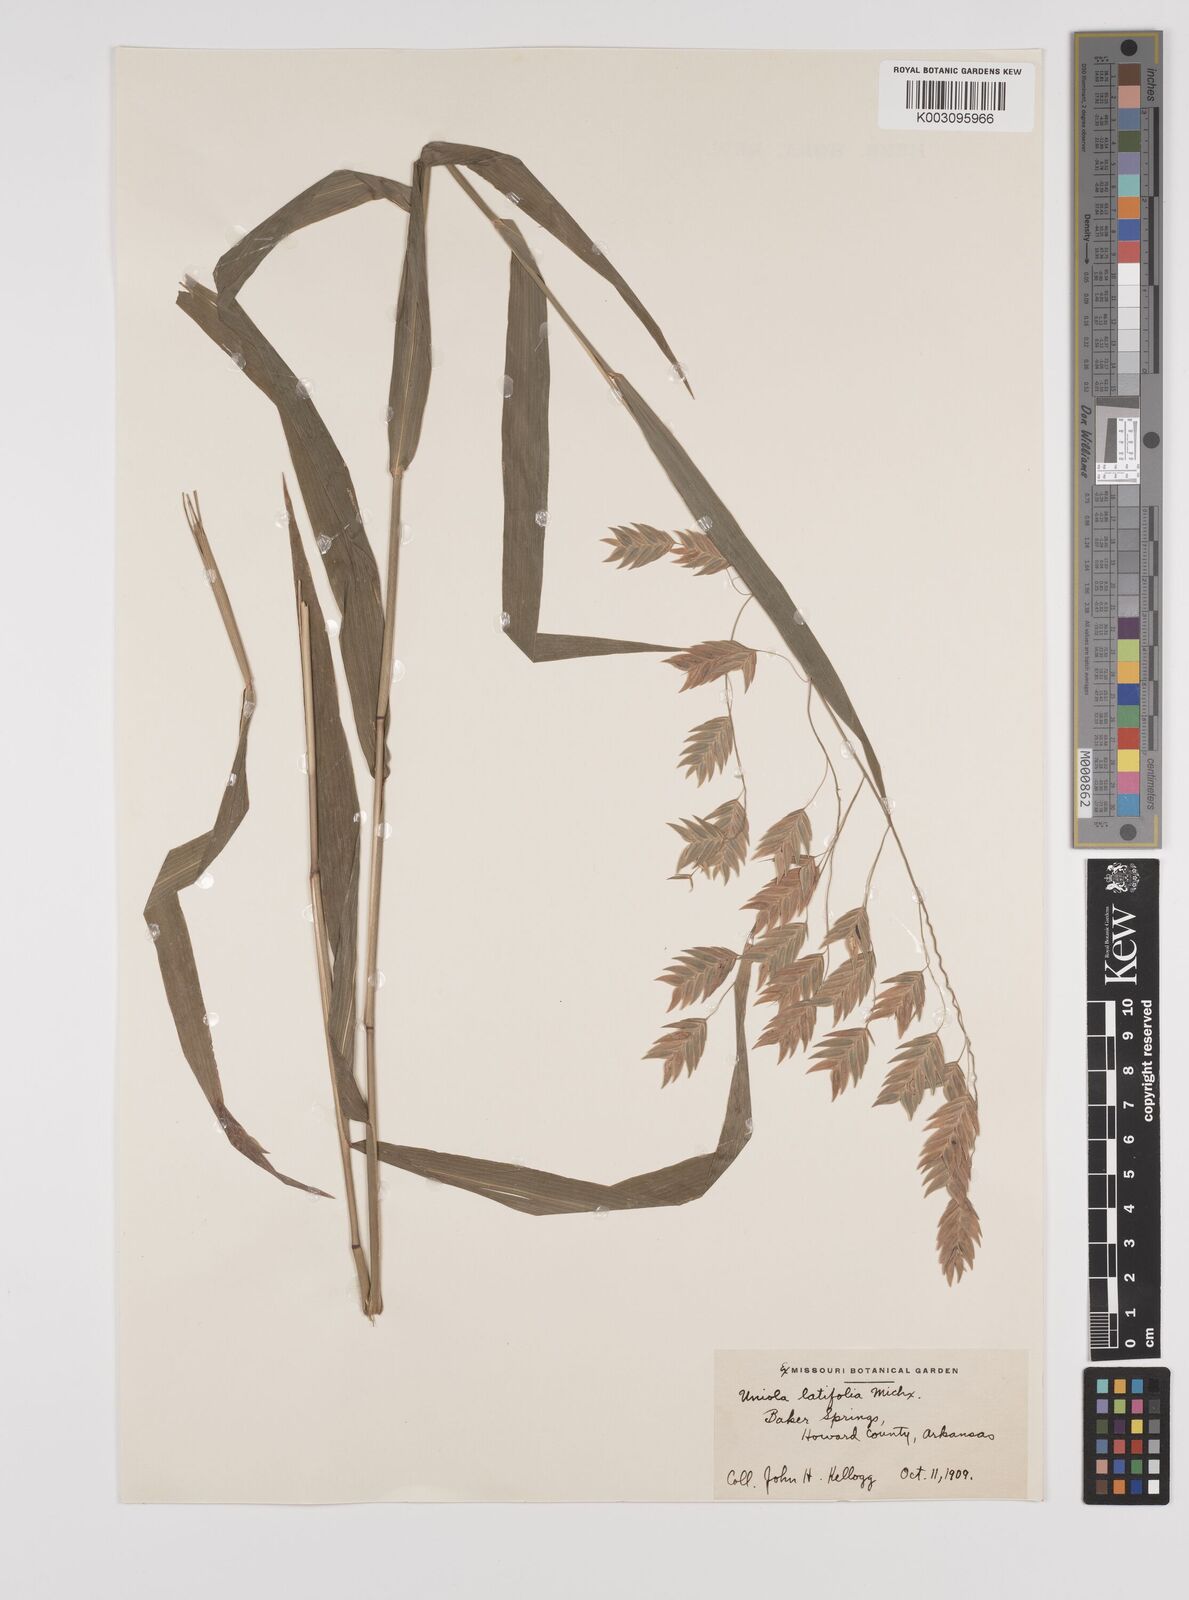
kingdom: Plantae
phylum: Tracheophyta
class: Liliopsida
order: Poales
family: Poaceae
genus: Chasmanthium
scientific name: Chasmanthium latifolium
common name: Broad-leaved chasmanthium
